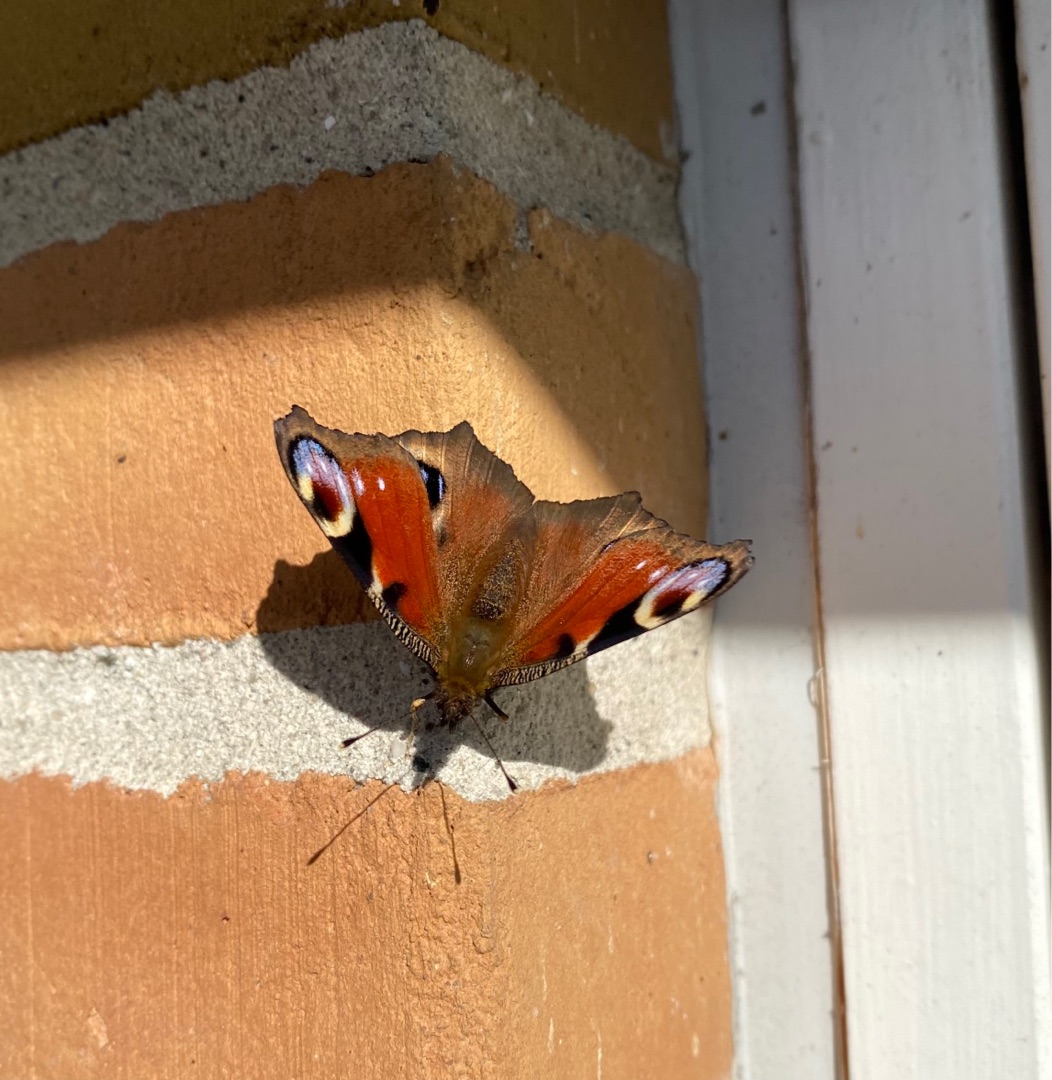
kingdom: Animalia
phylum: Arthropoda
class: Insecta
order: Lepidoptera
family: Nymphalidae
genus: Aglais
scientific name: Aglais io
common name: Dagpåfugleøje
